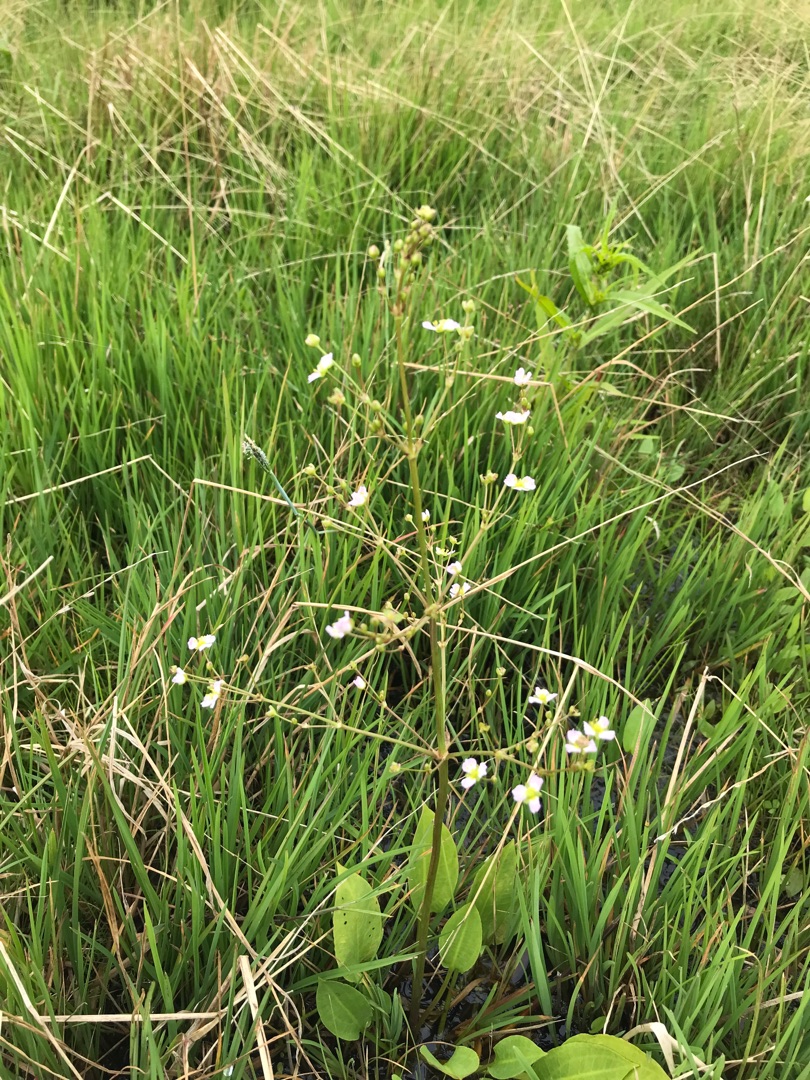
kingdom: Plantae
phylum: Tracheophyta
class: Liliopsida
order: Alismatales
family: Alismataceae
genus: Alisma
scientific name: Alisma plantago-aquatica
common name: Vejbred-skeblad
